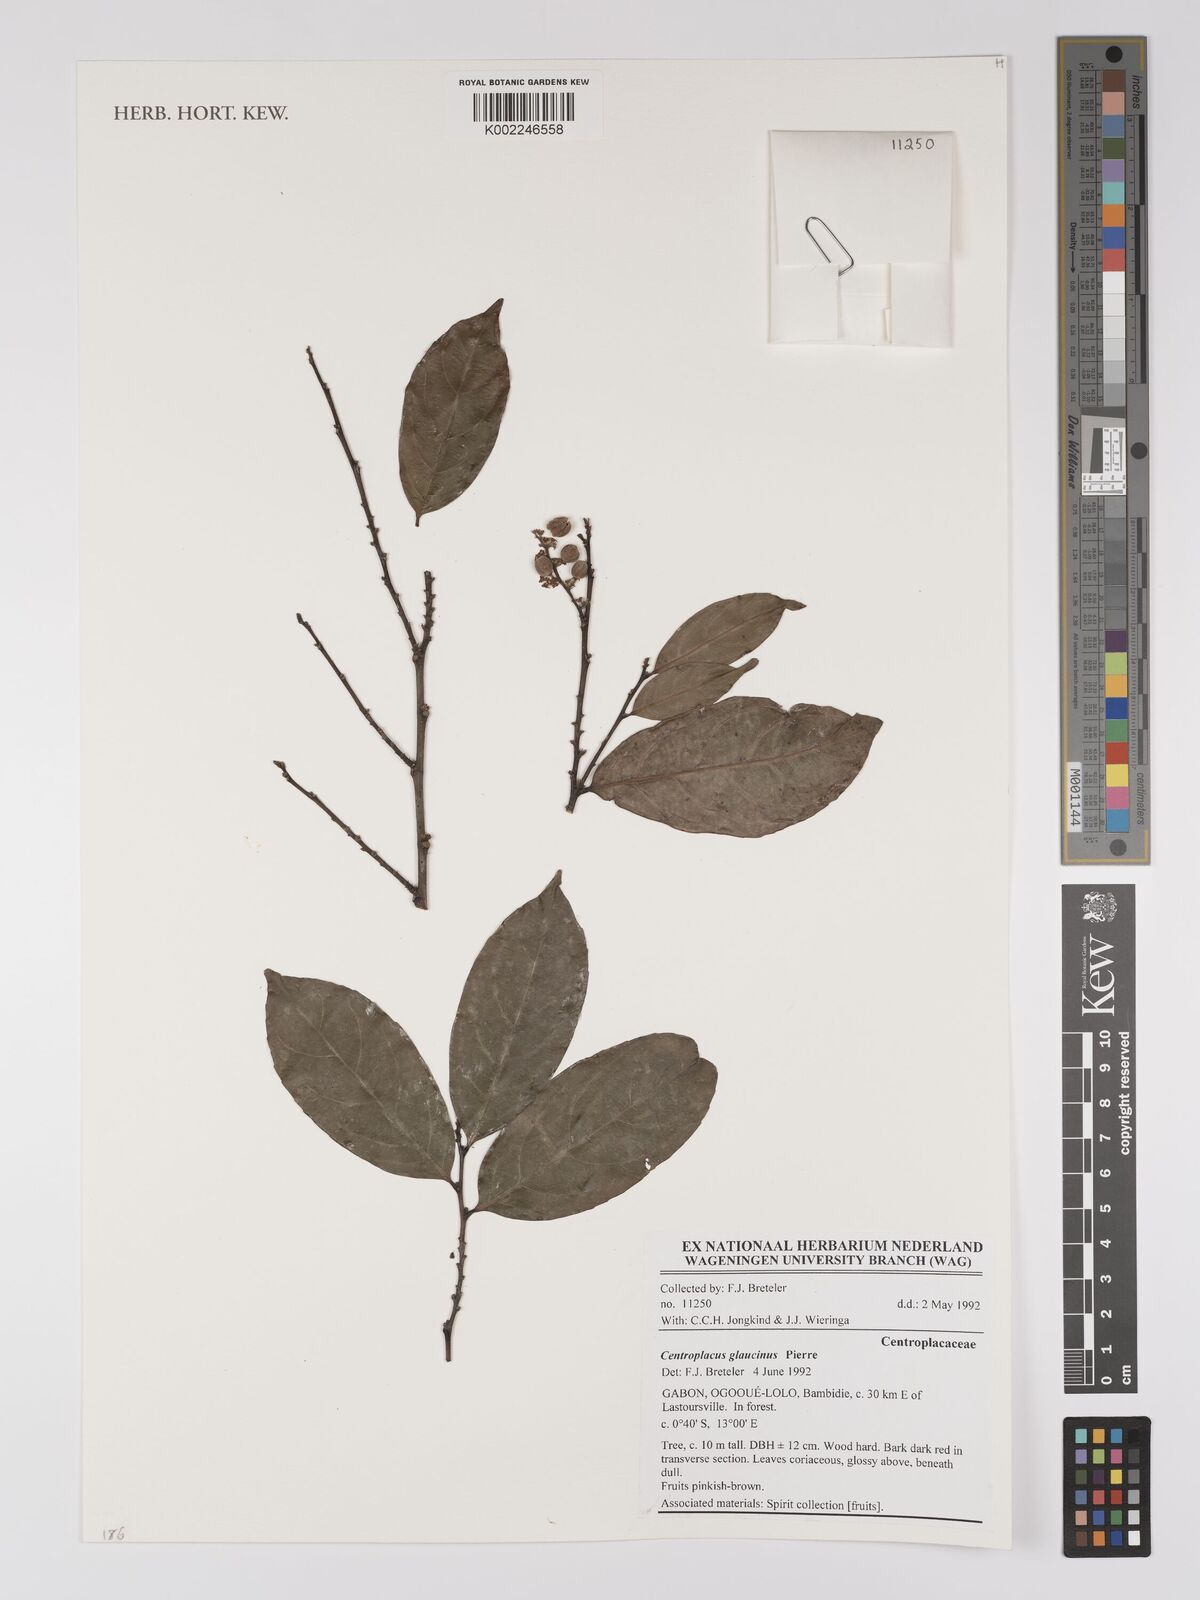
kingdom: Plantae
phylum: Tracheophyta
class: Magnoliopsida
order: Malpighiales
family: Centroplacaceae
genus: Centroplacus
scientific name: Centroplacus glaucinus
